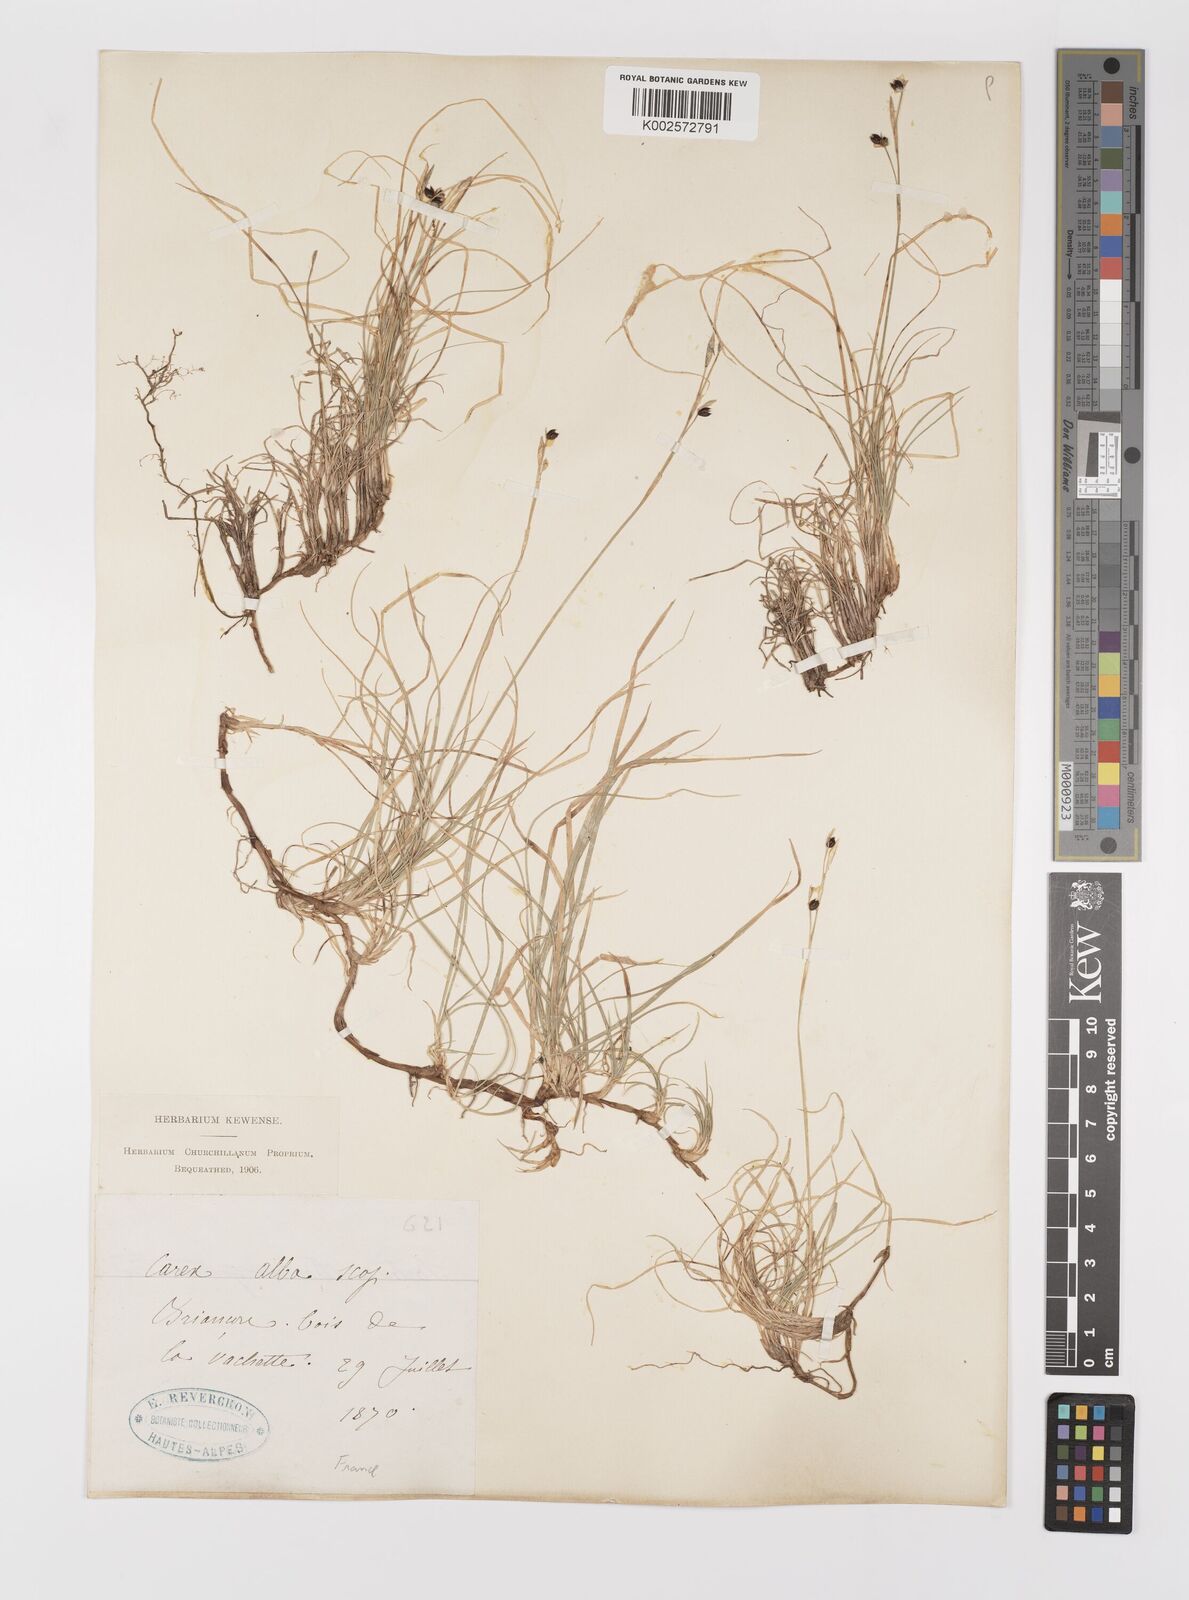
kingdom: Plantae
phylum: Tracheophyta
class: Liliopsida
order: Poales
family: Cyperaceae
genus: Carex
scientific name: Carex alba
